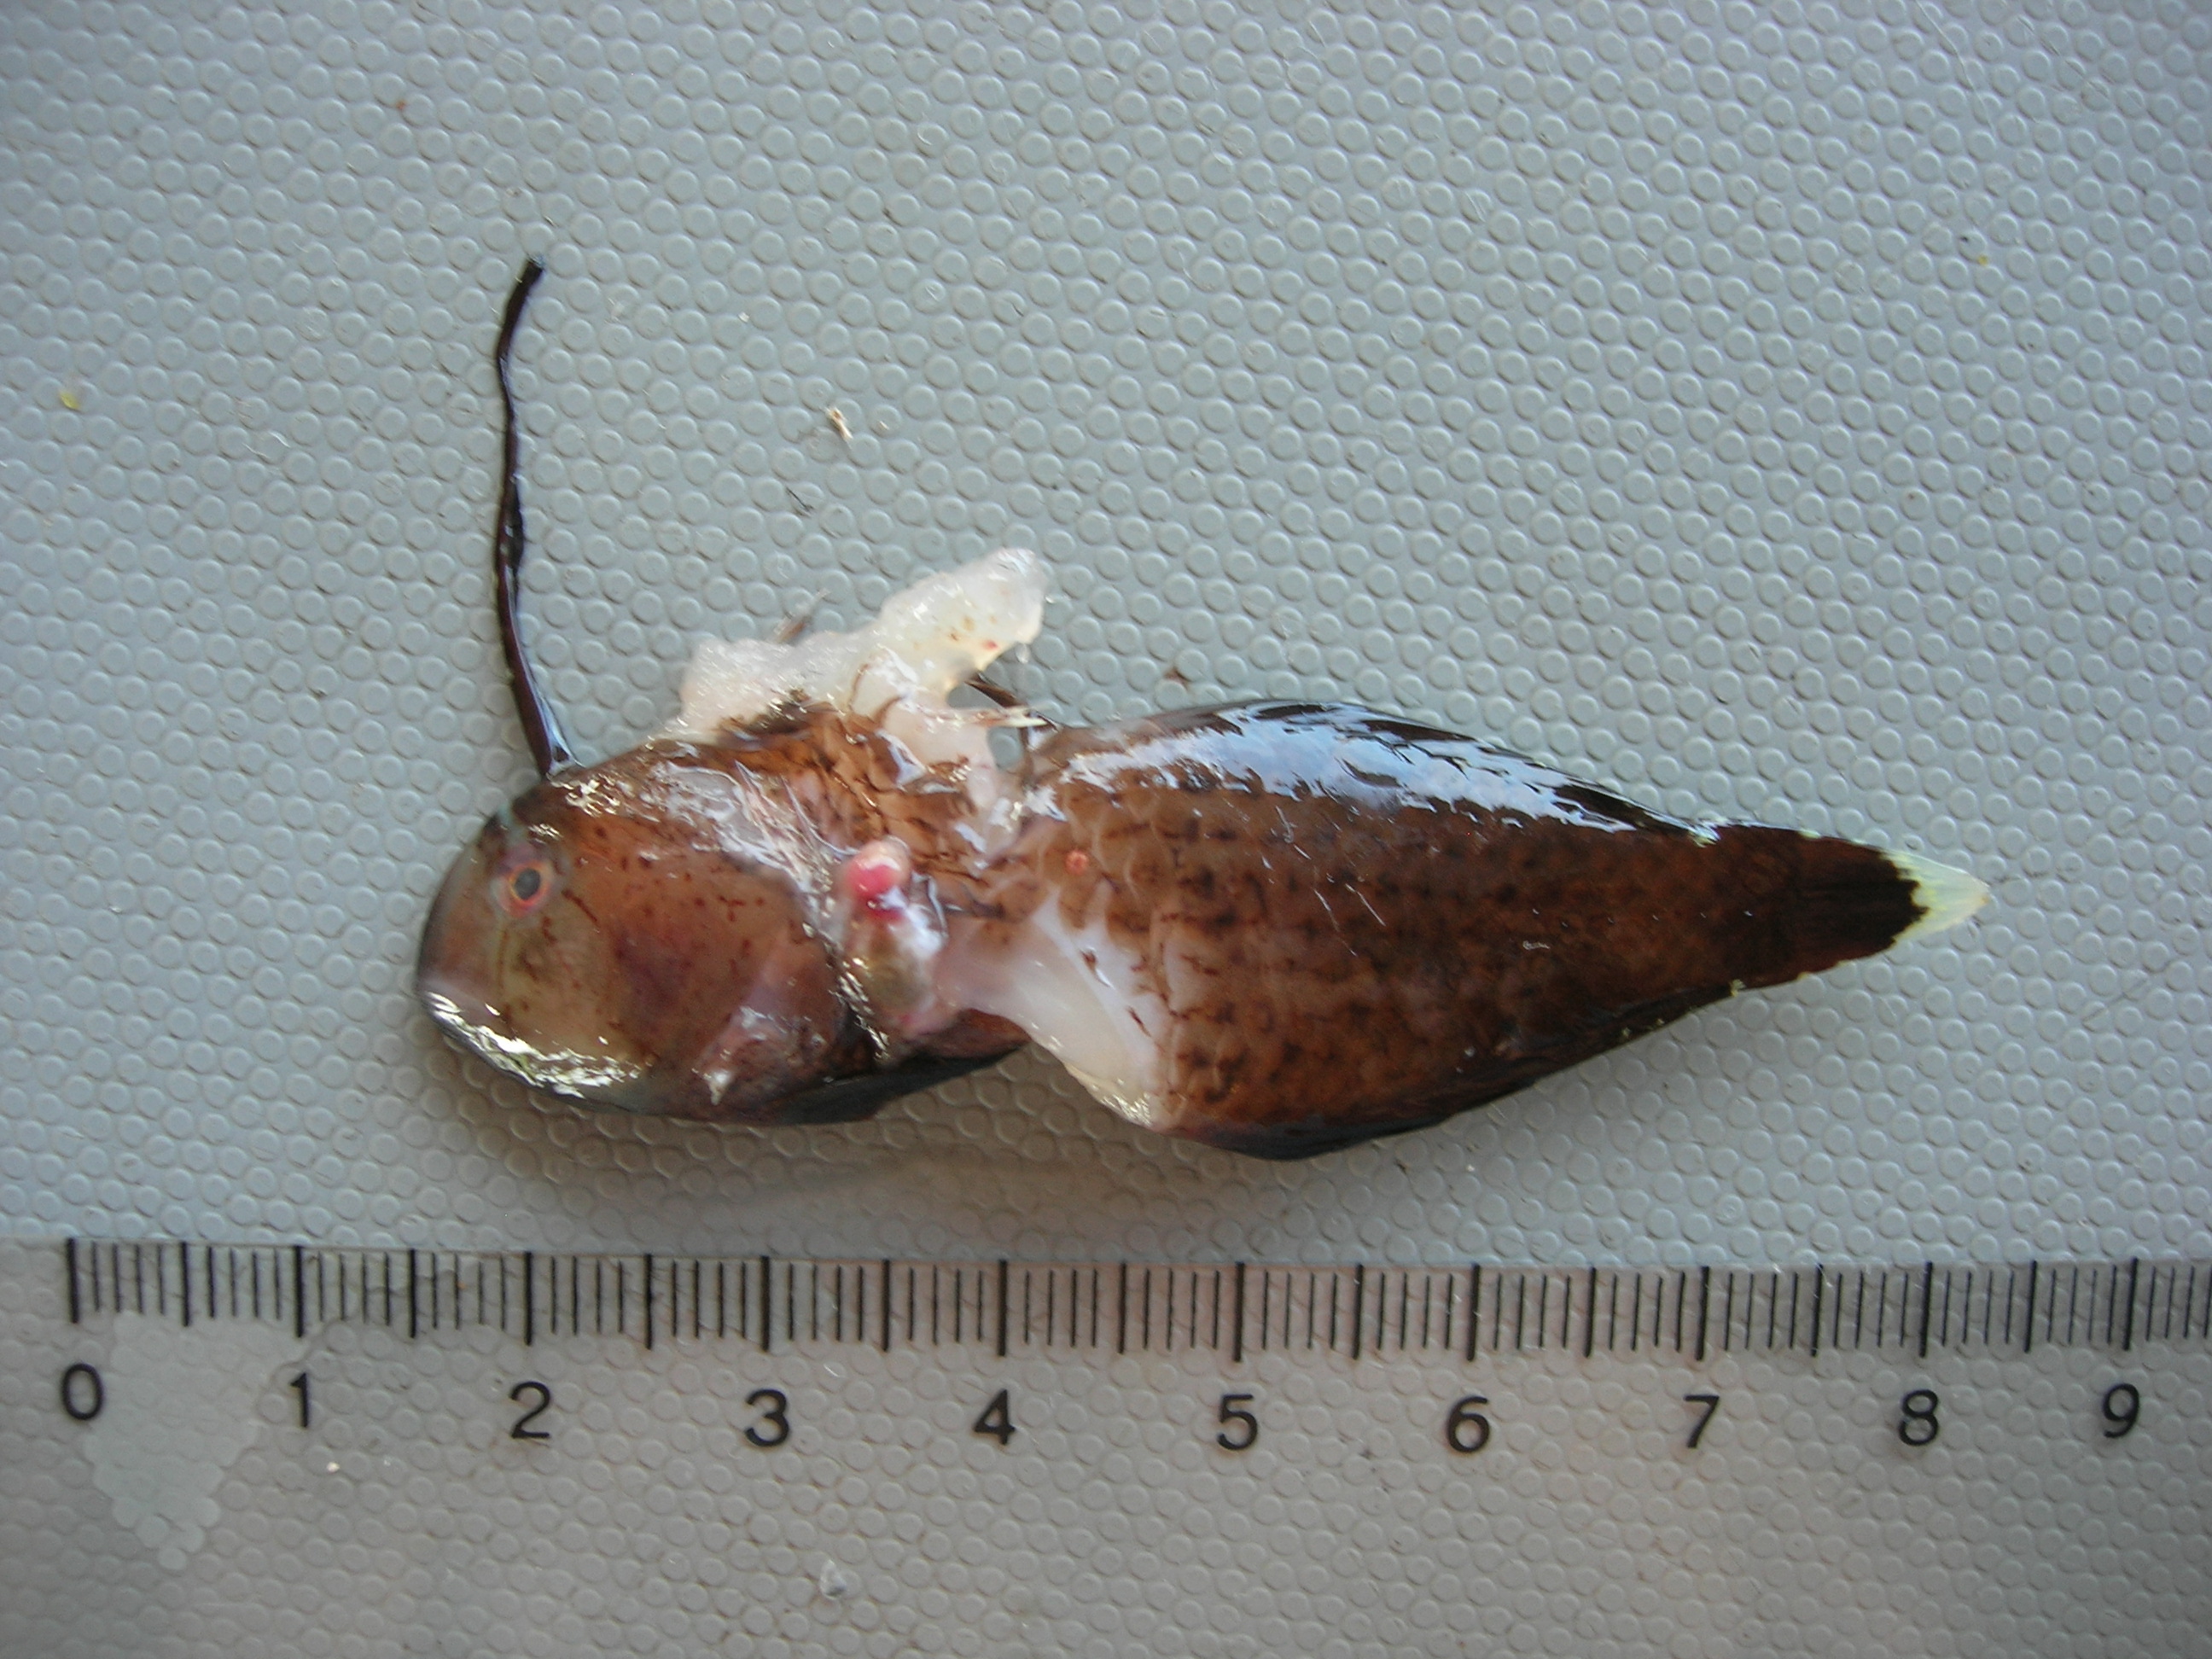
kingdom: Animalia
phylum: Chordata
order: Perciformes
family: Labridae
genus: Iniistius
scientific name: Iniistius pavo
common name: Peacock wrasse
